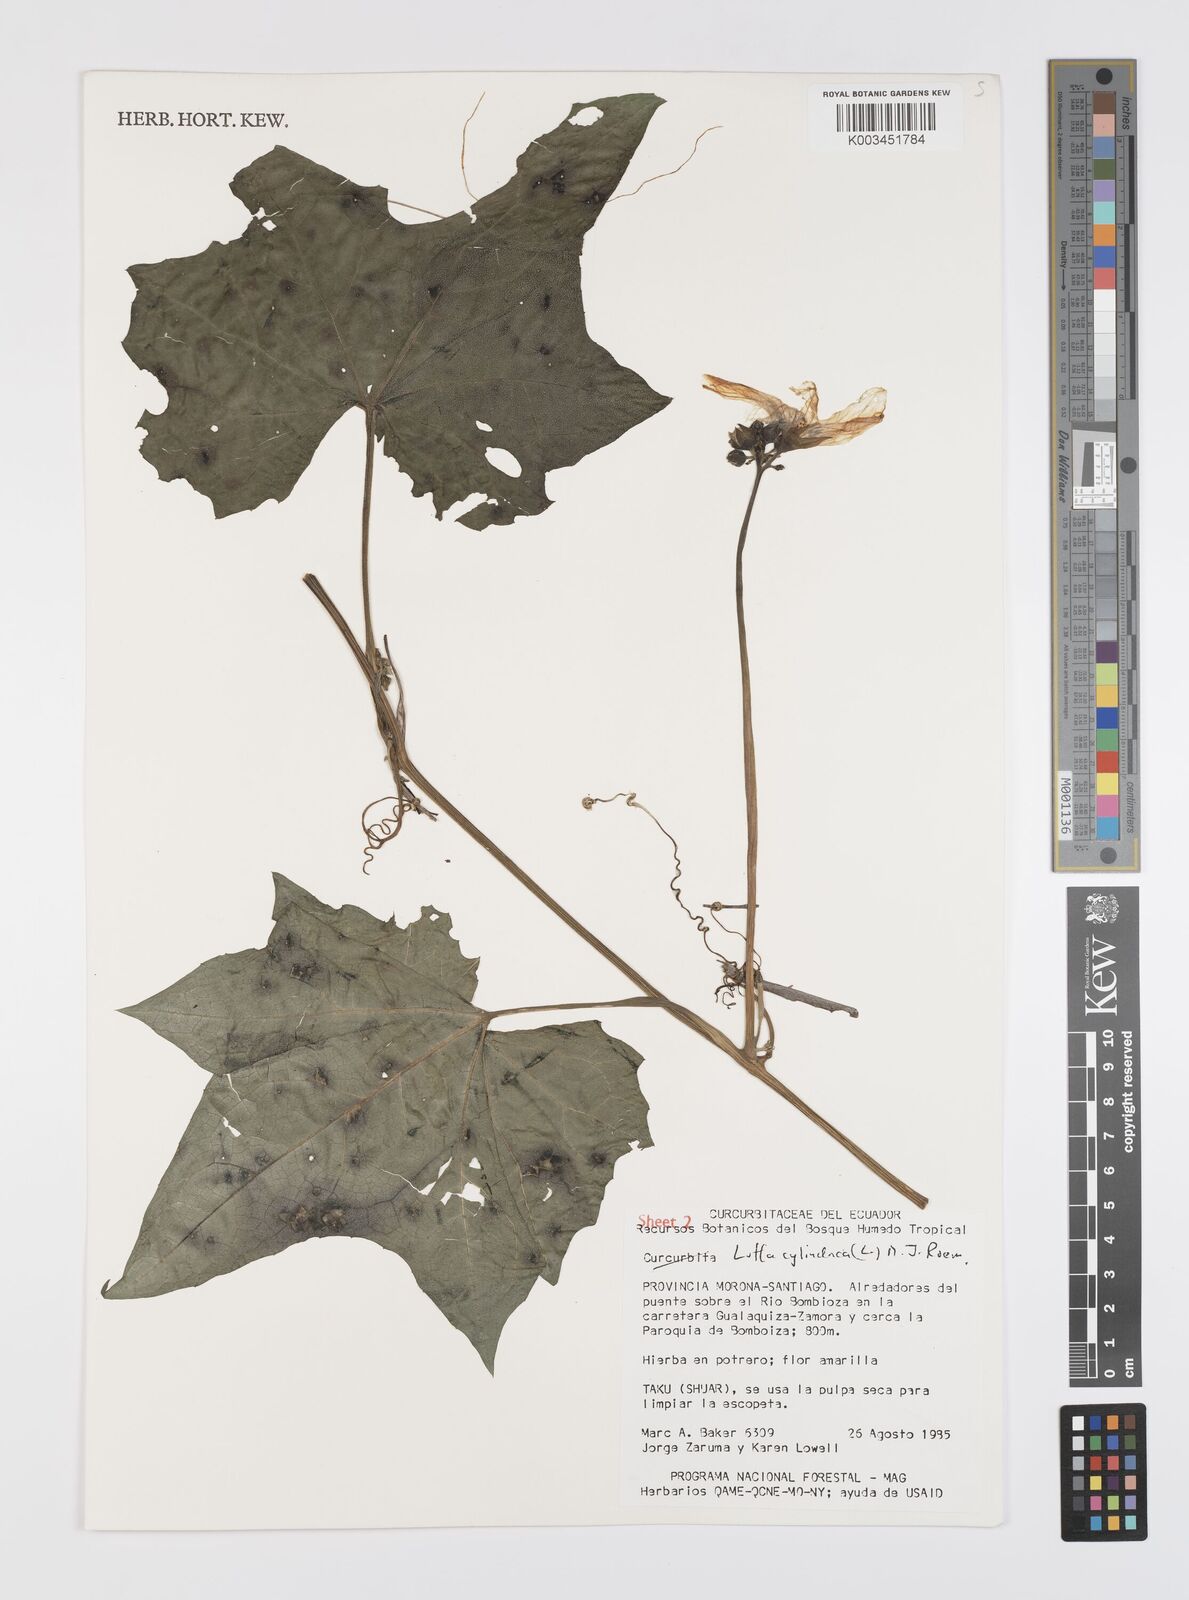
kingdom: Plantae
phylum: Tracheophyta
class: Magnoliopsida
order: Cucurbitales
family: Cucurbitaceae
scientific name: Cucurbitaceae
